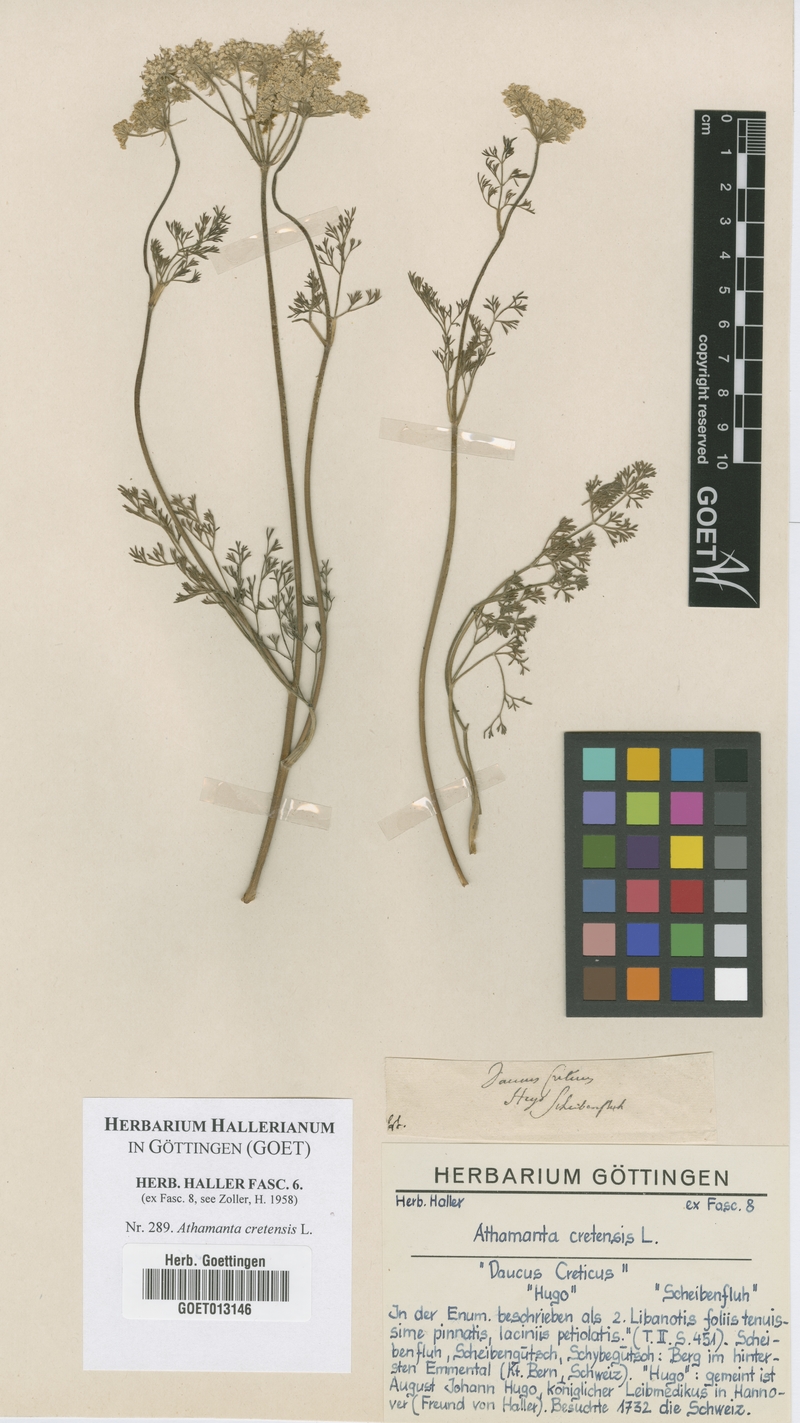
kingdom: Plantae
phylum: Tracheophyta
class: Magnoliopsida
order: Apiales
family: Apiaceae
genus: Athamanta
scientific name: Athamanta cretensis
